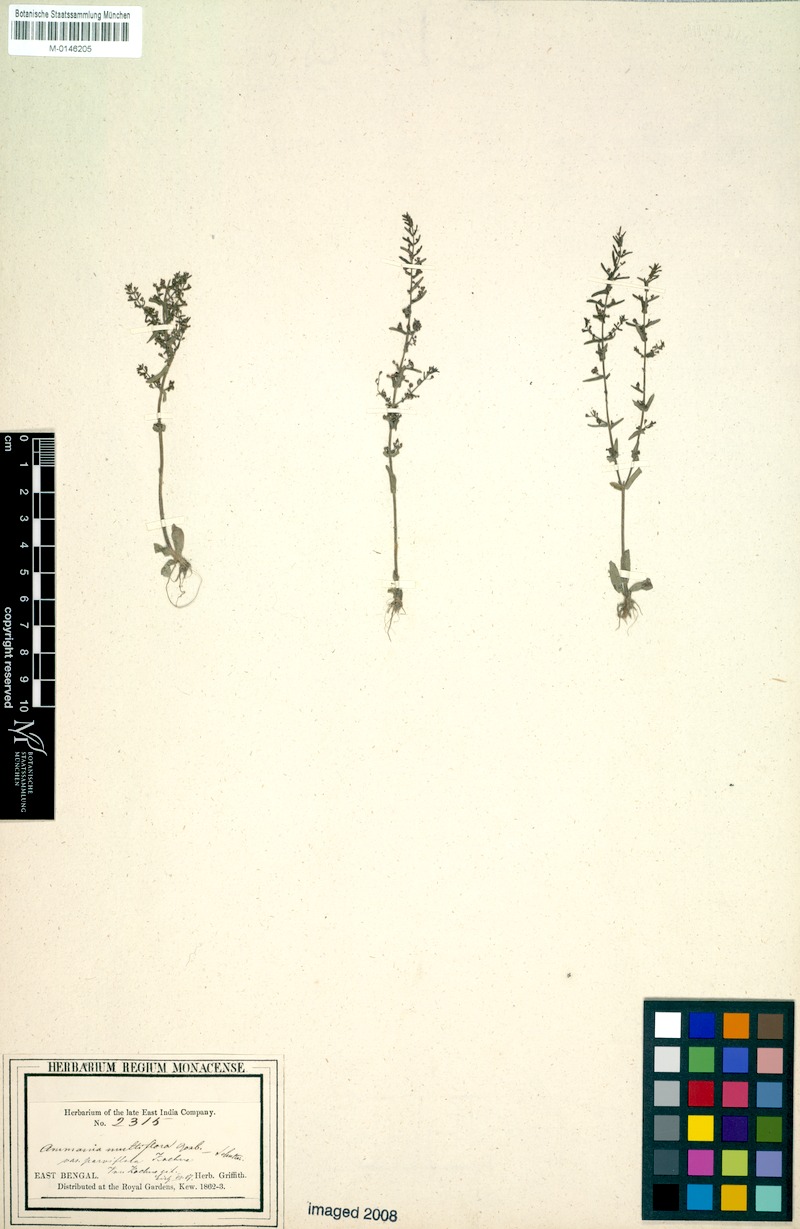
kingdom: Plantae
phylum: Tracheophyta
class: Magnoliopsida
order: Myrtales
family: Lythraceae
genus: Ammannia
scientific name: Ammannia auriculata
